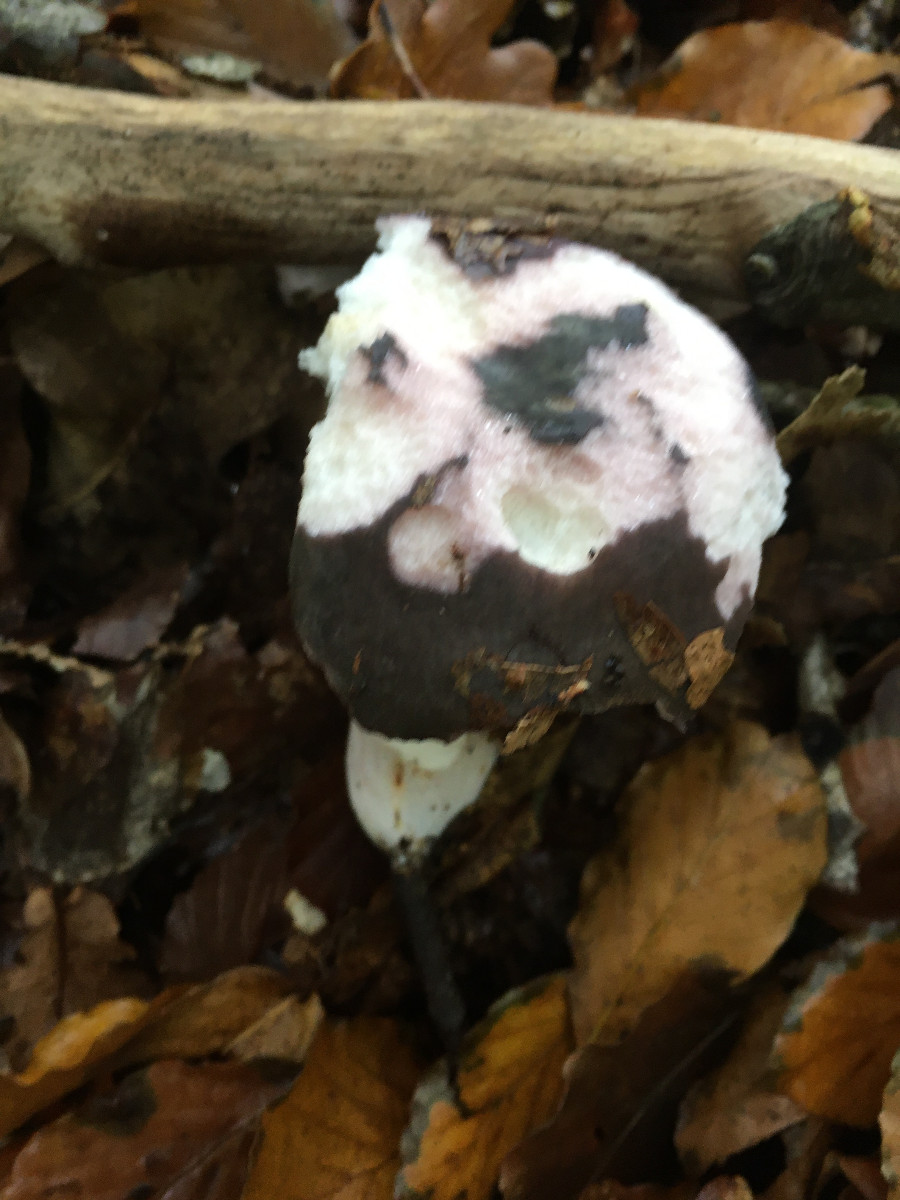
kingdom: Fungi
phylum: Basidiomycota
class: Agaricomycetes
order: Russulales
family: Russulaceae
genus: Russula
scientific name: Russula cyanoxantha
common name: broget skørhat
